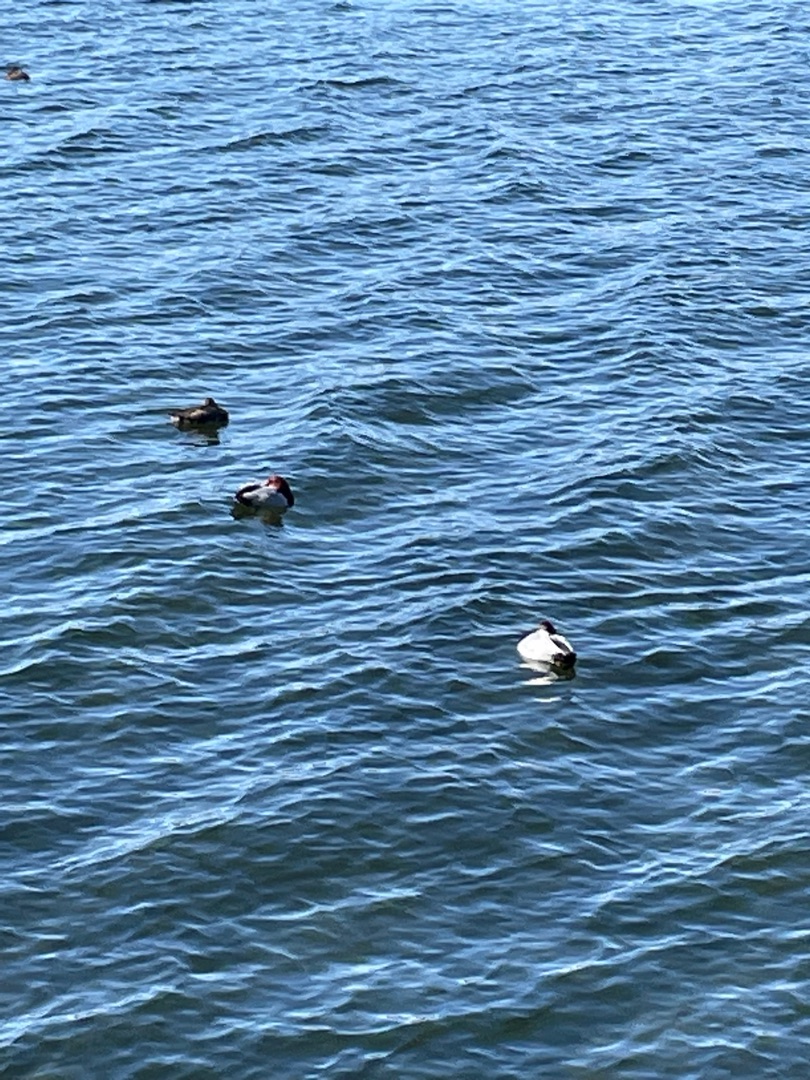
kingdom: Animalia
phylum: Chordata
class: Aves
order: Anseriformes
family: Anatidae
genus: Aythya
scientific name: Aythya ferina
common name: Taffeland
